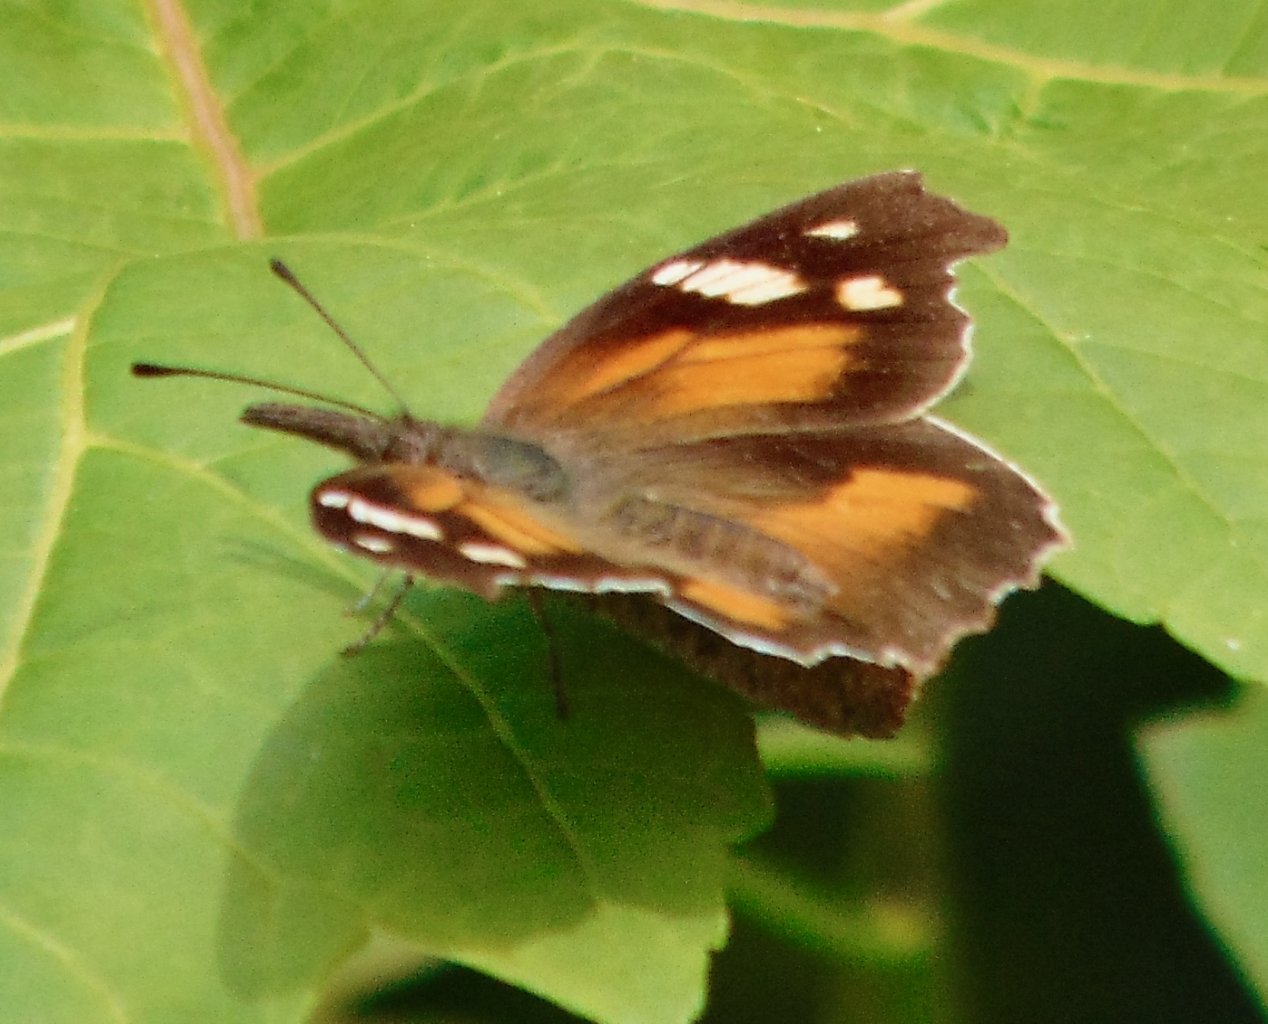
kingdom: Animalia
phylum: Arthropoda
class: Insecta
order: Lepidoptera
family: Nymphalidae
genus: Libytheana
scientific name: Libytheana carinenta
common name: American Snout
